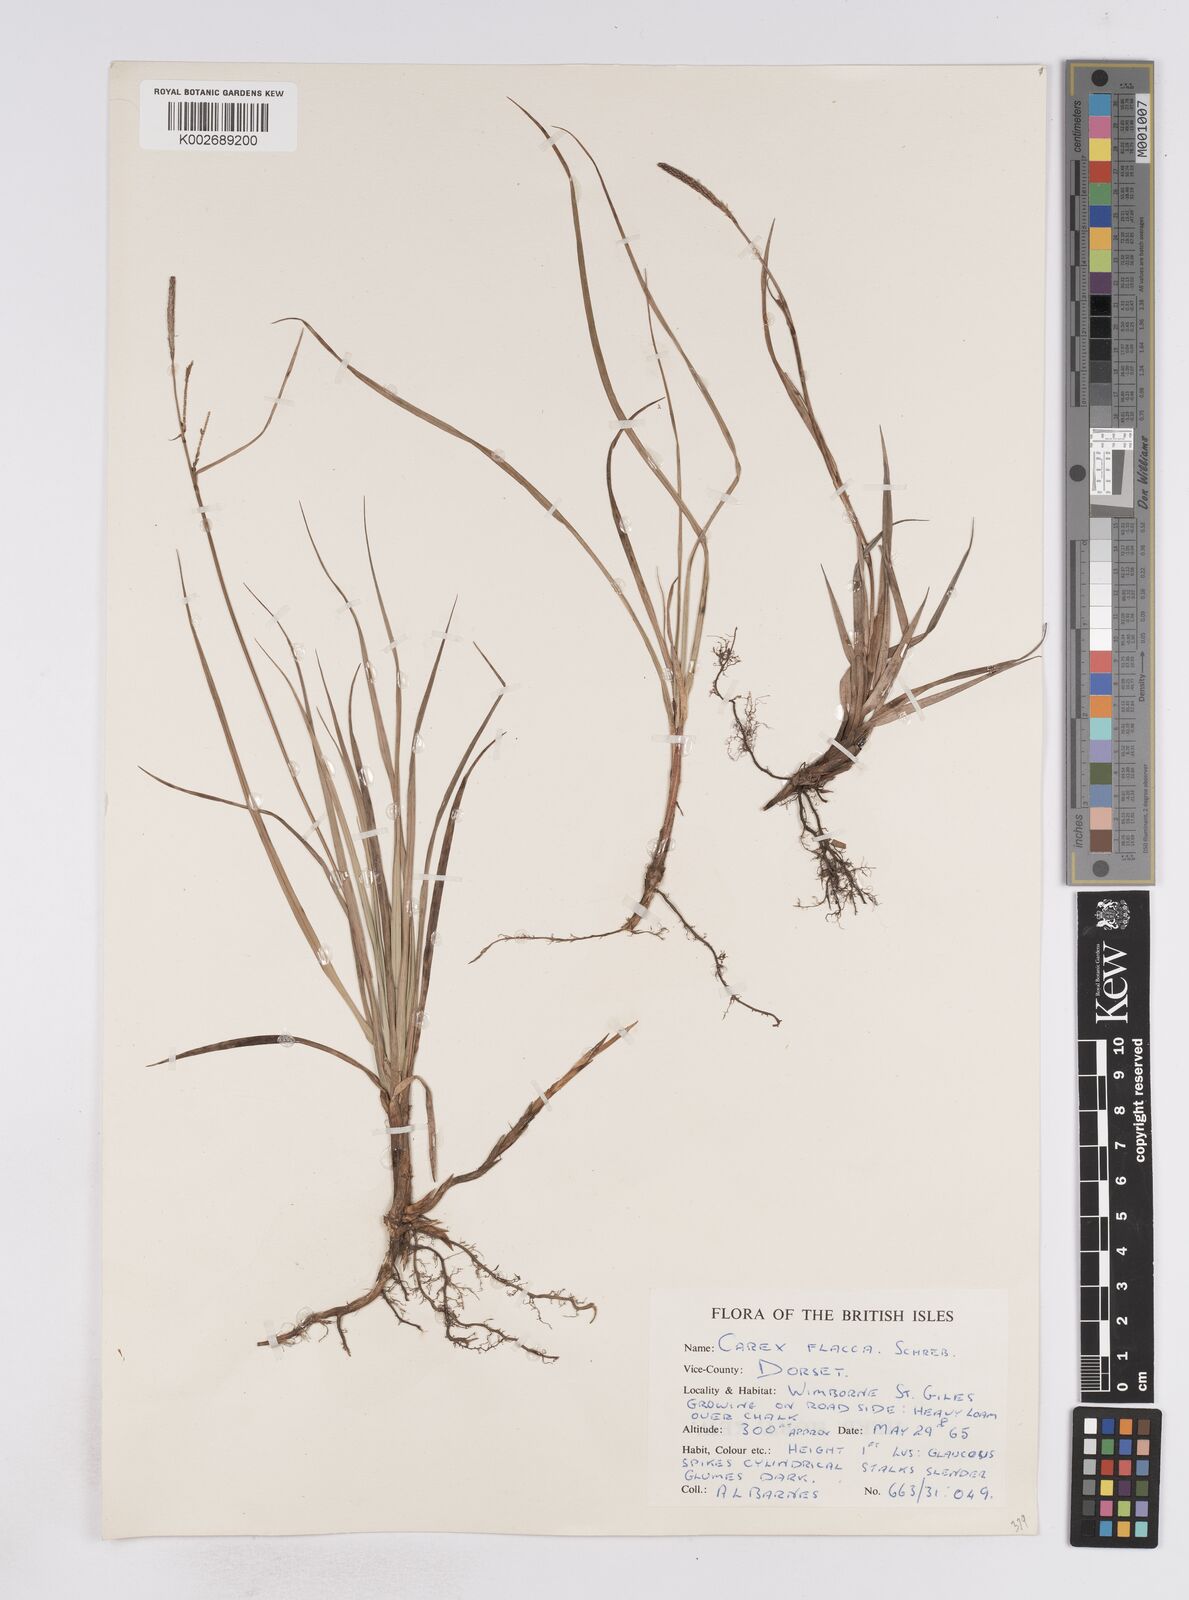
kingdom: Plantae
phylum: Tracheophyta
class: Liliopsida
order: Poales
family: Cyperaceae
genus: Carex
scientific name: Carex flacca
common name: Glaucous sedge
